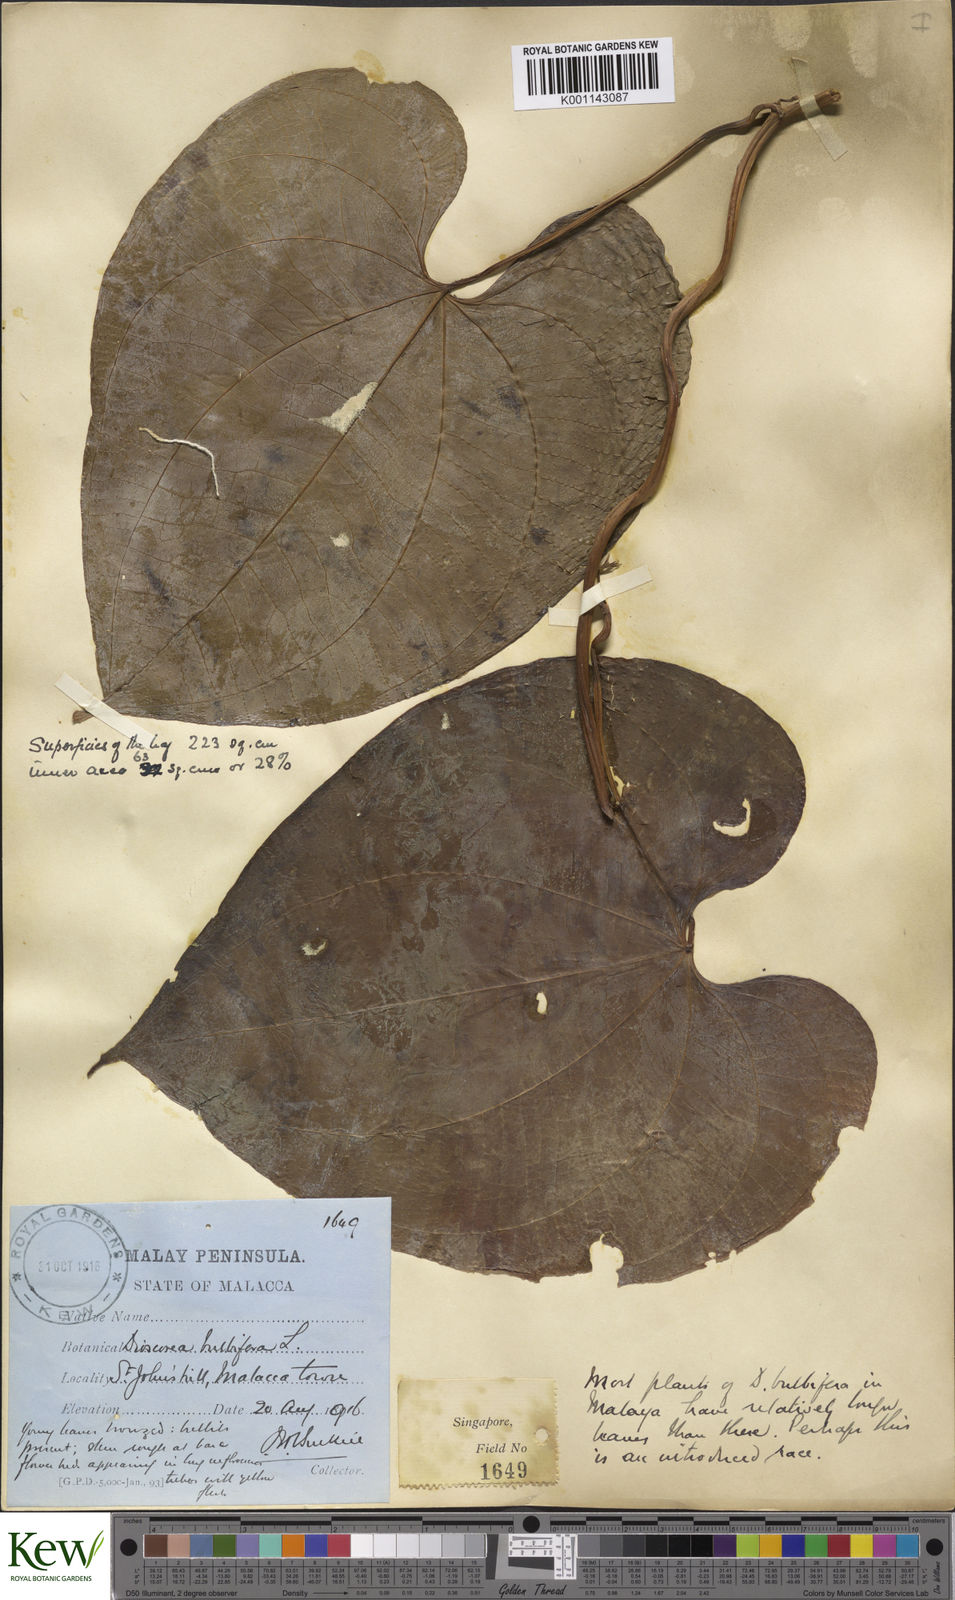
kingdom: Plantae
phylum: Tracheophyta
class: Liliopsida
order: Dioscoreales
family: Dioscoreaceae
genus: Dioscorea
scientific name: Dioscorea bulbifera
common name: Air yam
